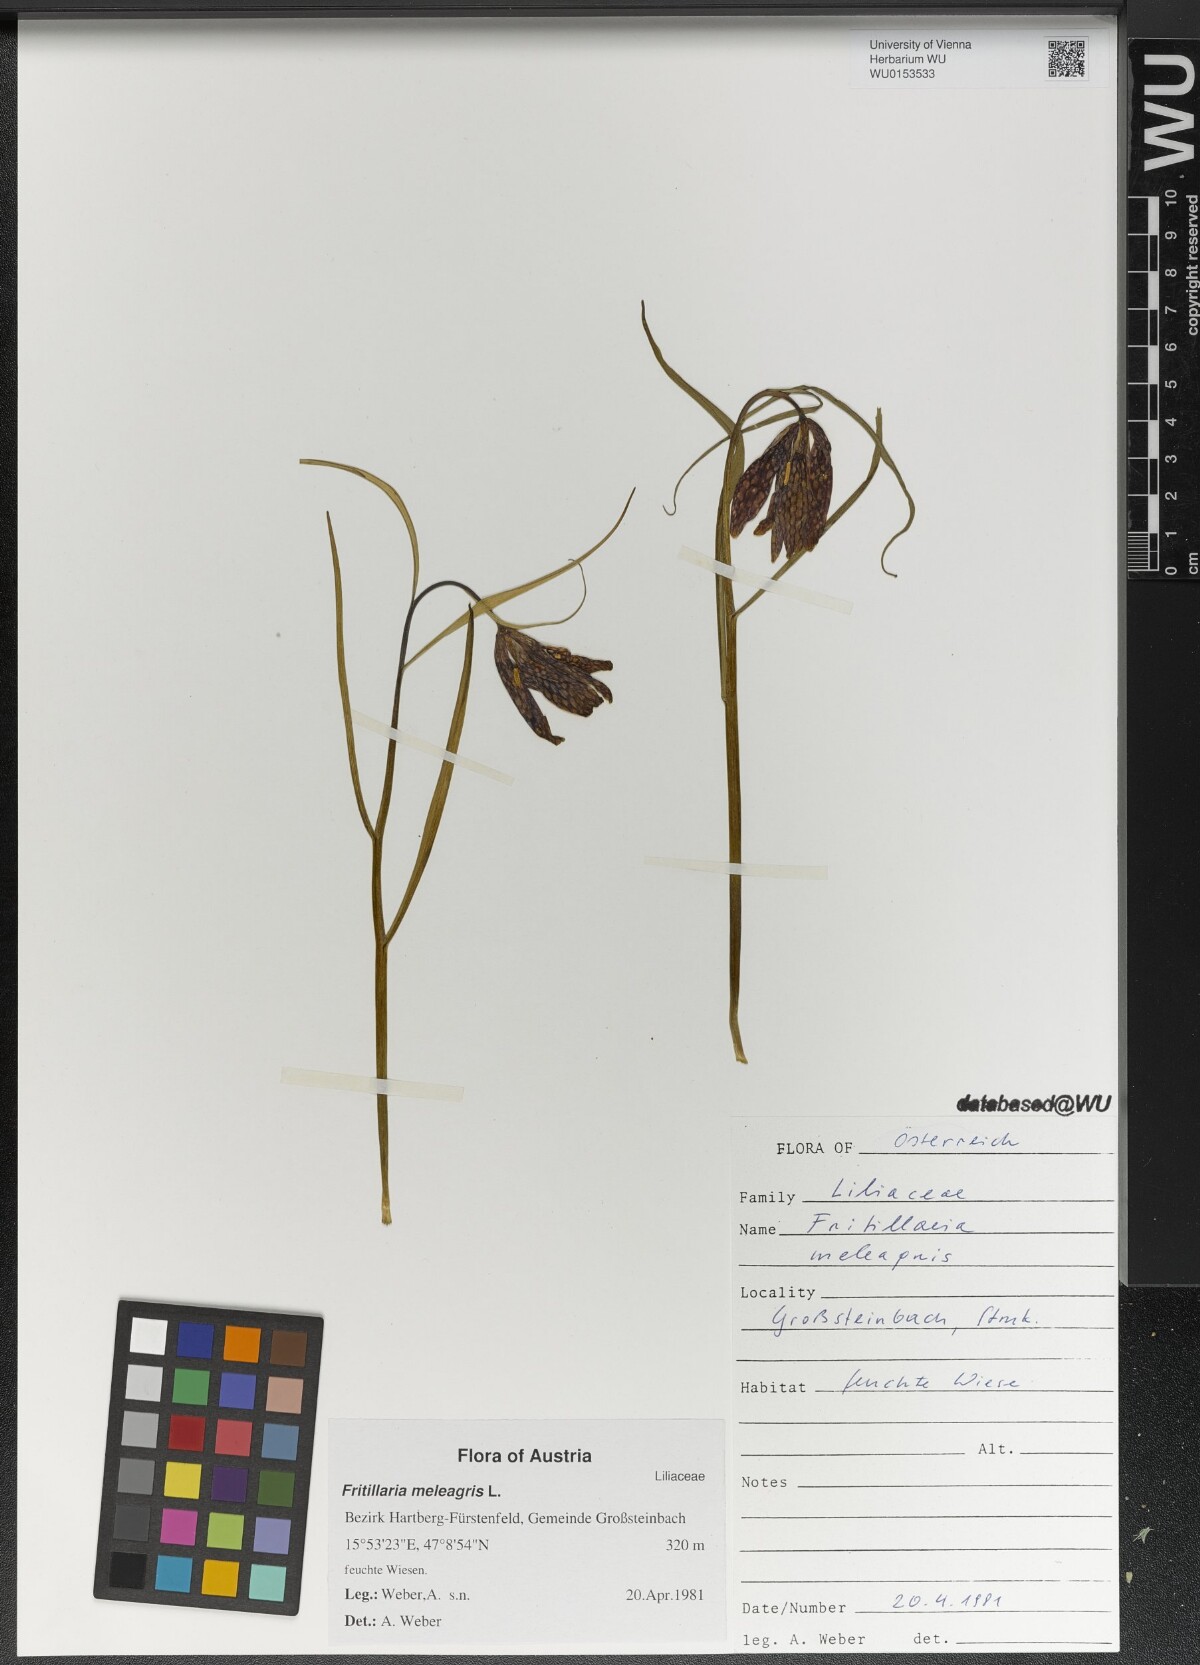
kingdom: Plantae
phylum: Tracheophyta
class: Liliopsida
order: Liliales
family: Liliaceae
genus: Fritillaria
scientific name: Fritillaria meleagris
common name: Fritillary
